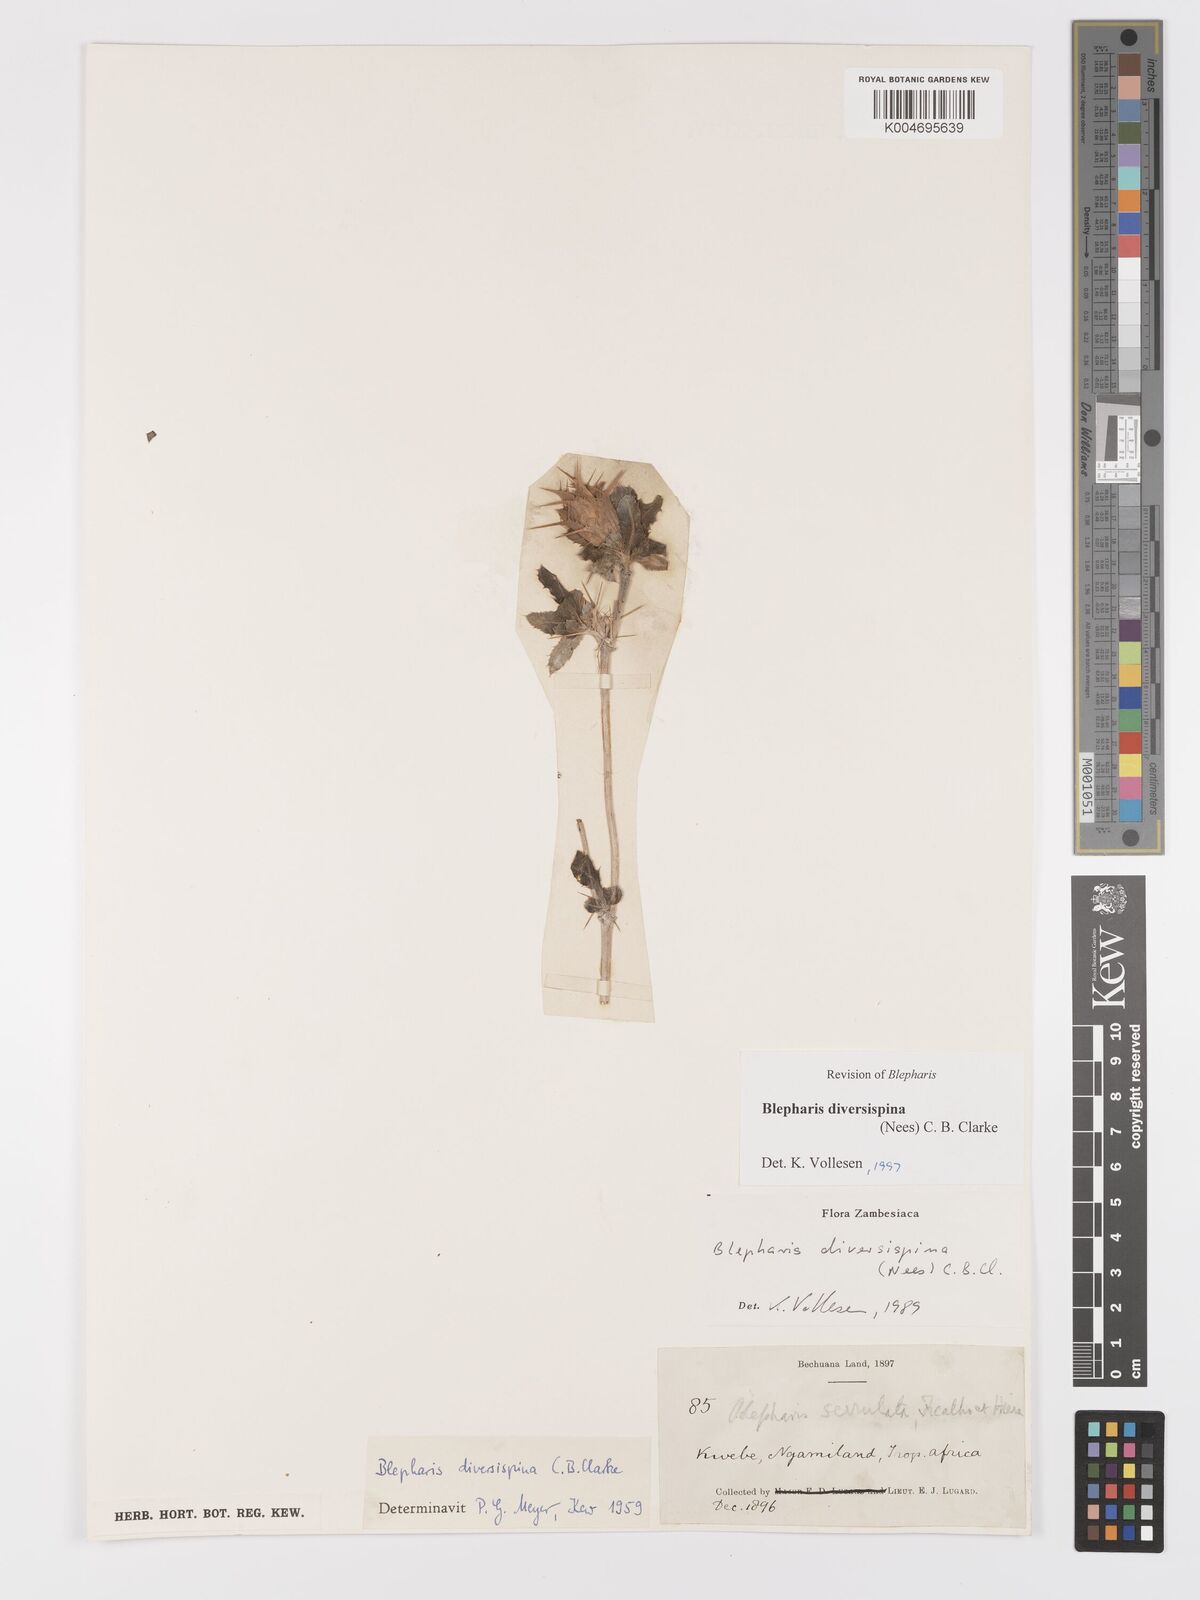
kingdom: Plantae
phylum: Tracheophyta
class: Magnoliopsida
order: Lamiales
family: Acanthaceae
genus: Blepharis
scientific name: Blepharis diversispina
